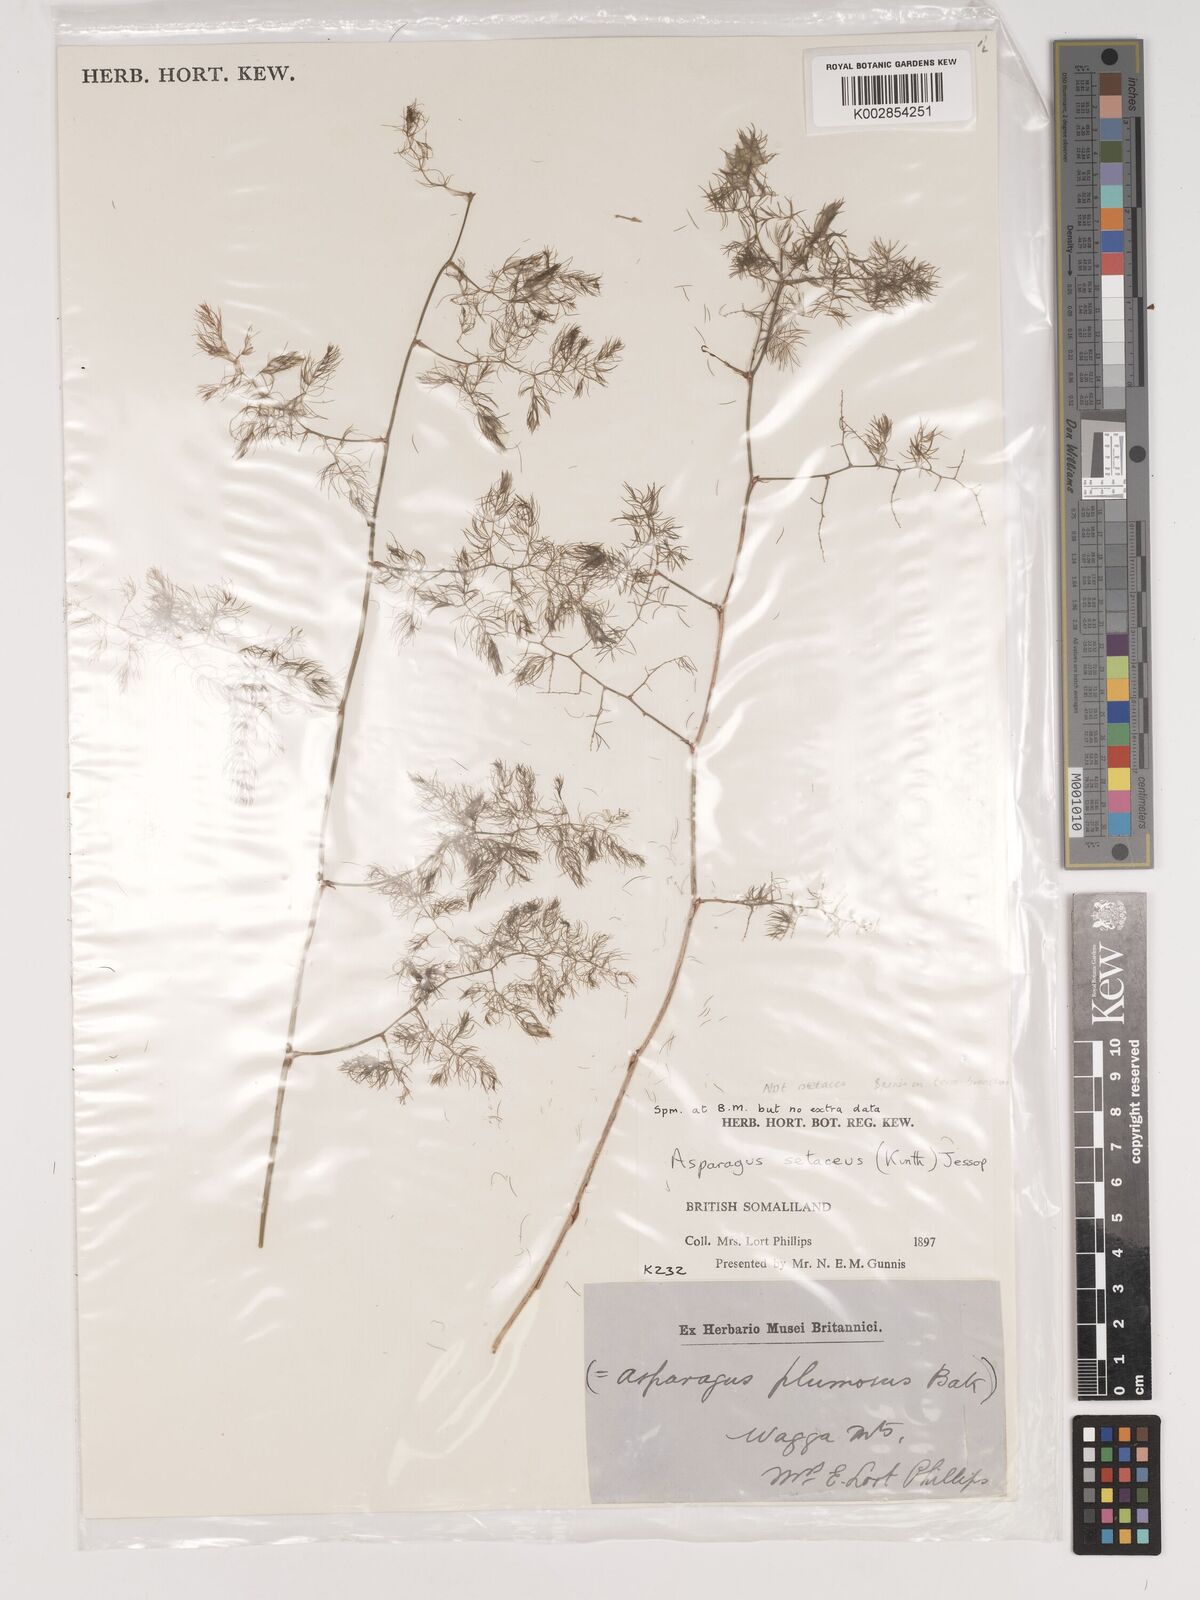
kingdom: Plantae
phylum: Tracheophyta
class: Liliopsida
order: Asparagales
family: Asparagaceae
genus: Asparagus
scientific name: Asparagus setaceus
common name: Common asparagus fern
